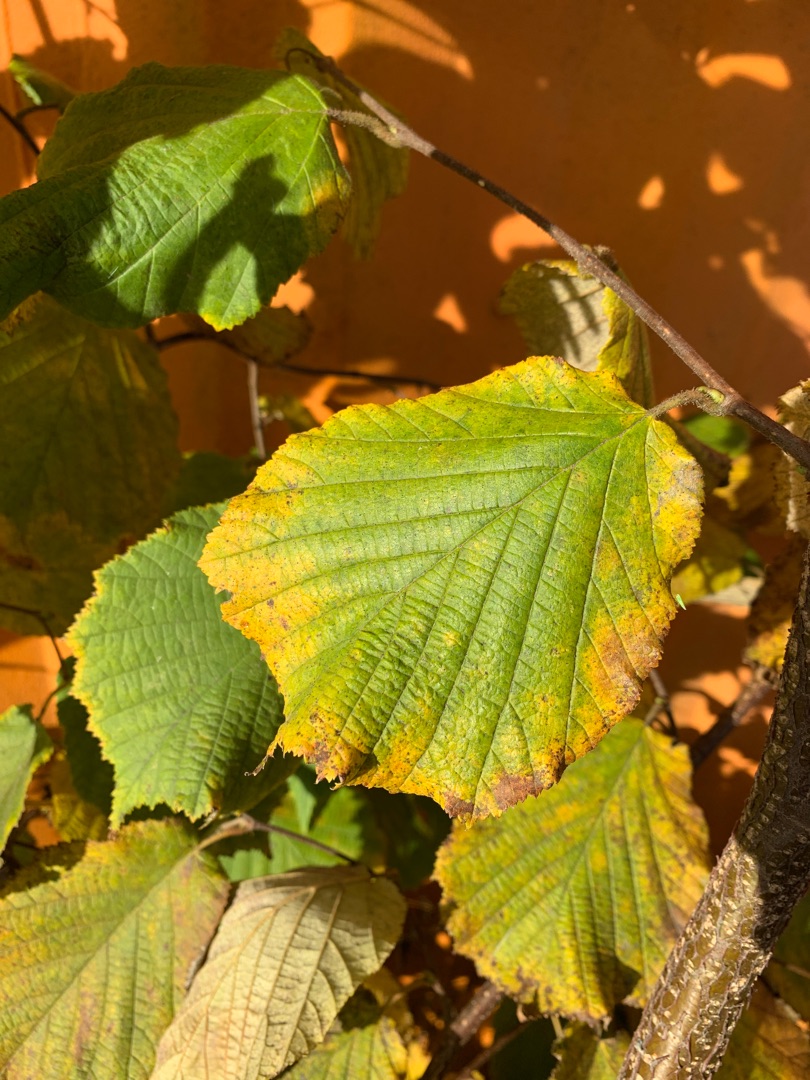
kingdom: Plantae
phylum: Tracheophyta
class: Magnoliopsida
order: Fagales
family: Betulaceae
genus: Corylus
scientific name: Corylus avellana
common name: Hassel
